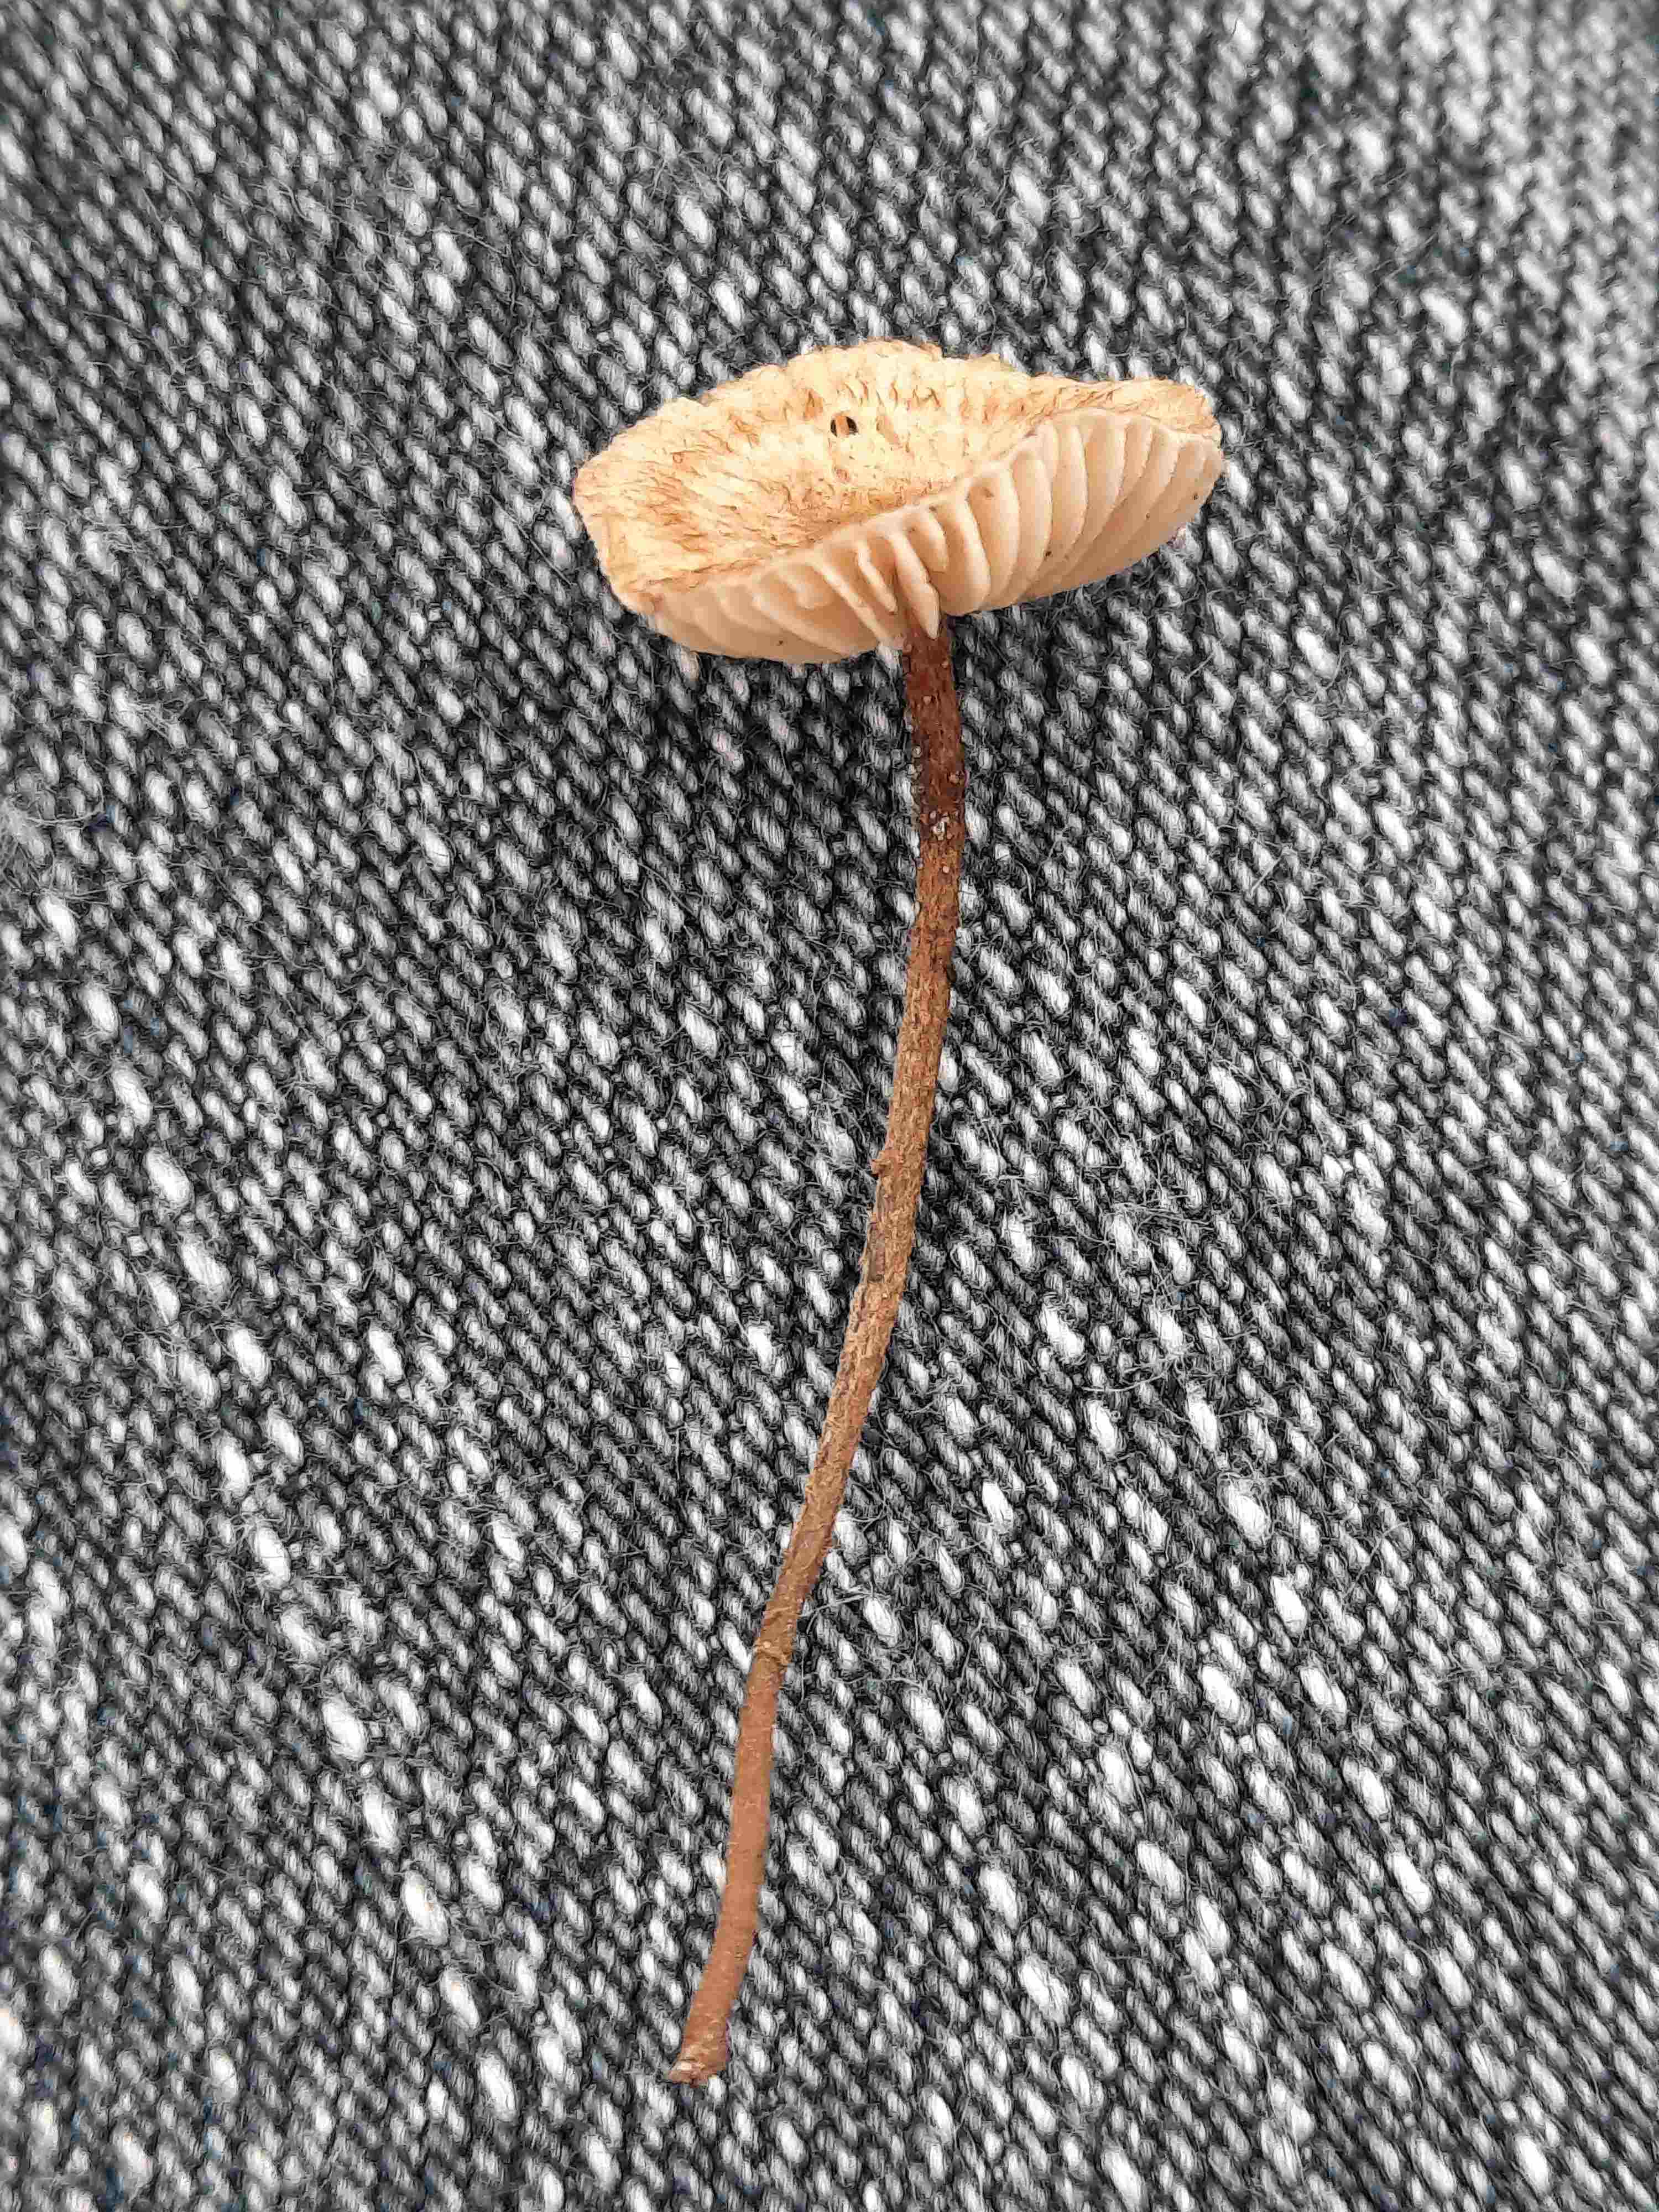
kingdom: Fungi
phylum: Basidiomycota
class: Agaricomycetes
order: Agaricales
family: Marasmiaceae
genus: Crinipellis
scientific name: Crinipellis scabella
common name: børstefod
